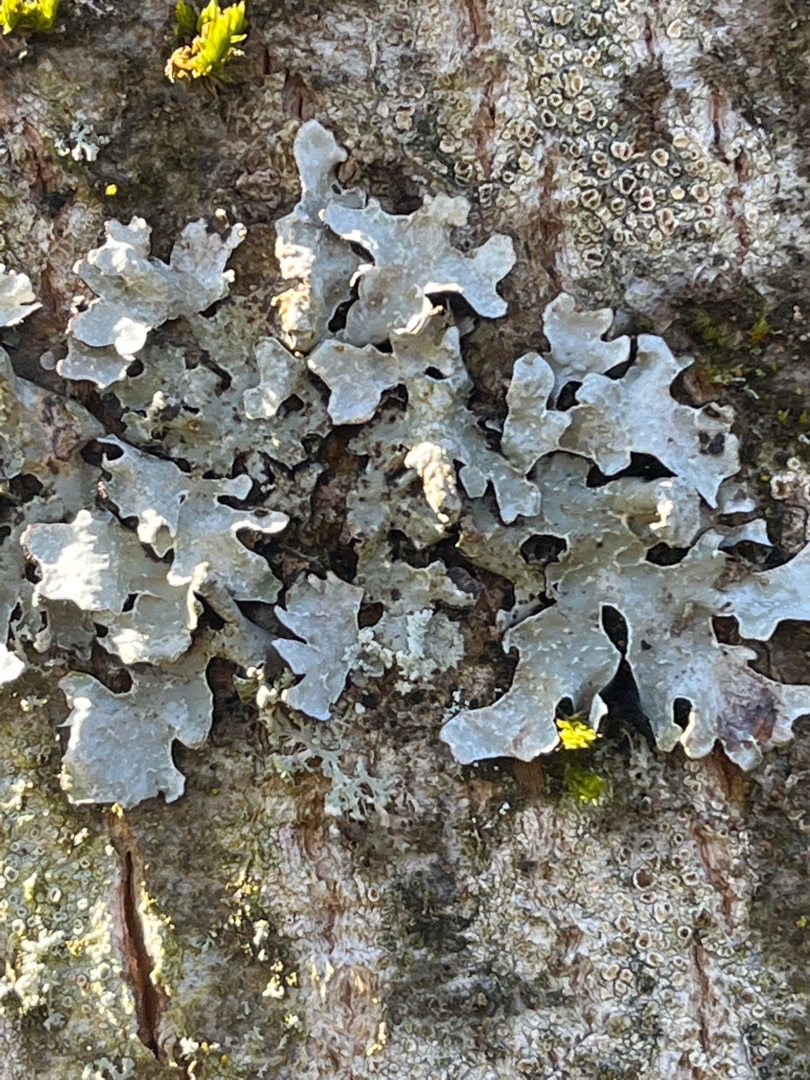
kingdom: Fungi
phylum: Ascomycota
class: Lecanoromycetes
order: Lecanorales
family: Parmeliaceae
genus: Parmelia
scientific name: Parmelia sulcata
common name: Rynket skållav
